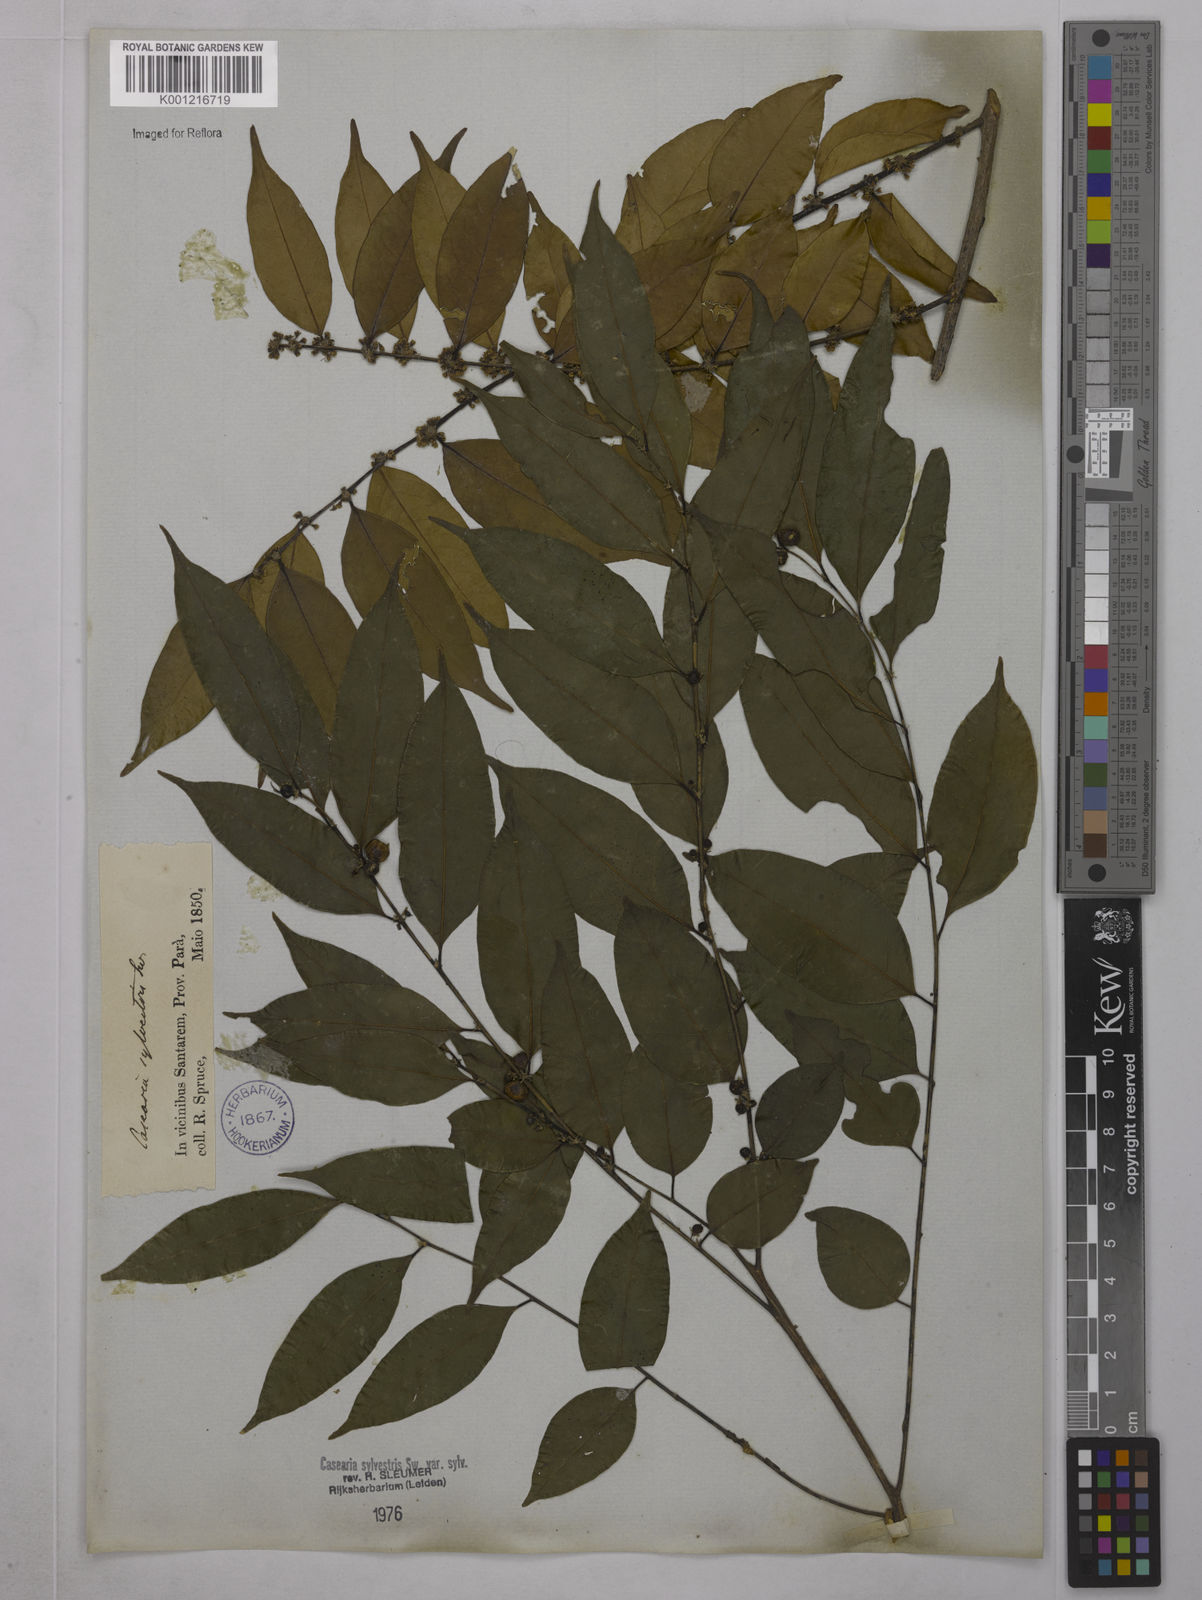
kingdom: Plantae
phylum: Tracheophyta
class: Magnoliopsida
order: Malpighiales
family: Salicaceae
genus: Casearia
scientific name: Casearia sylvestris
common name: Wild sage
